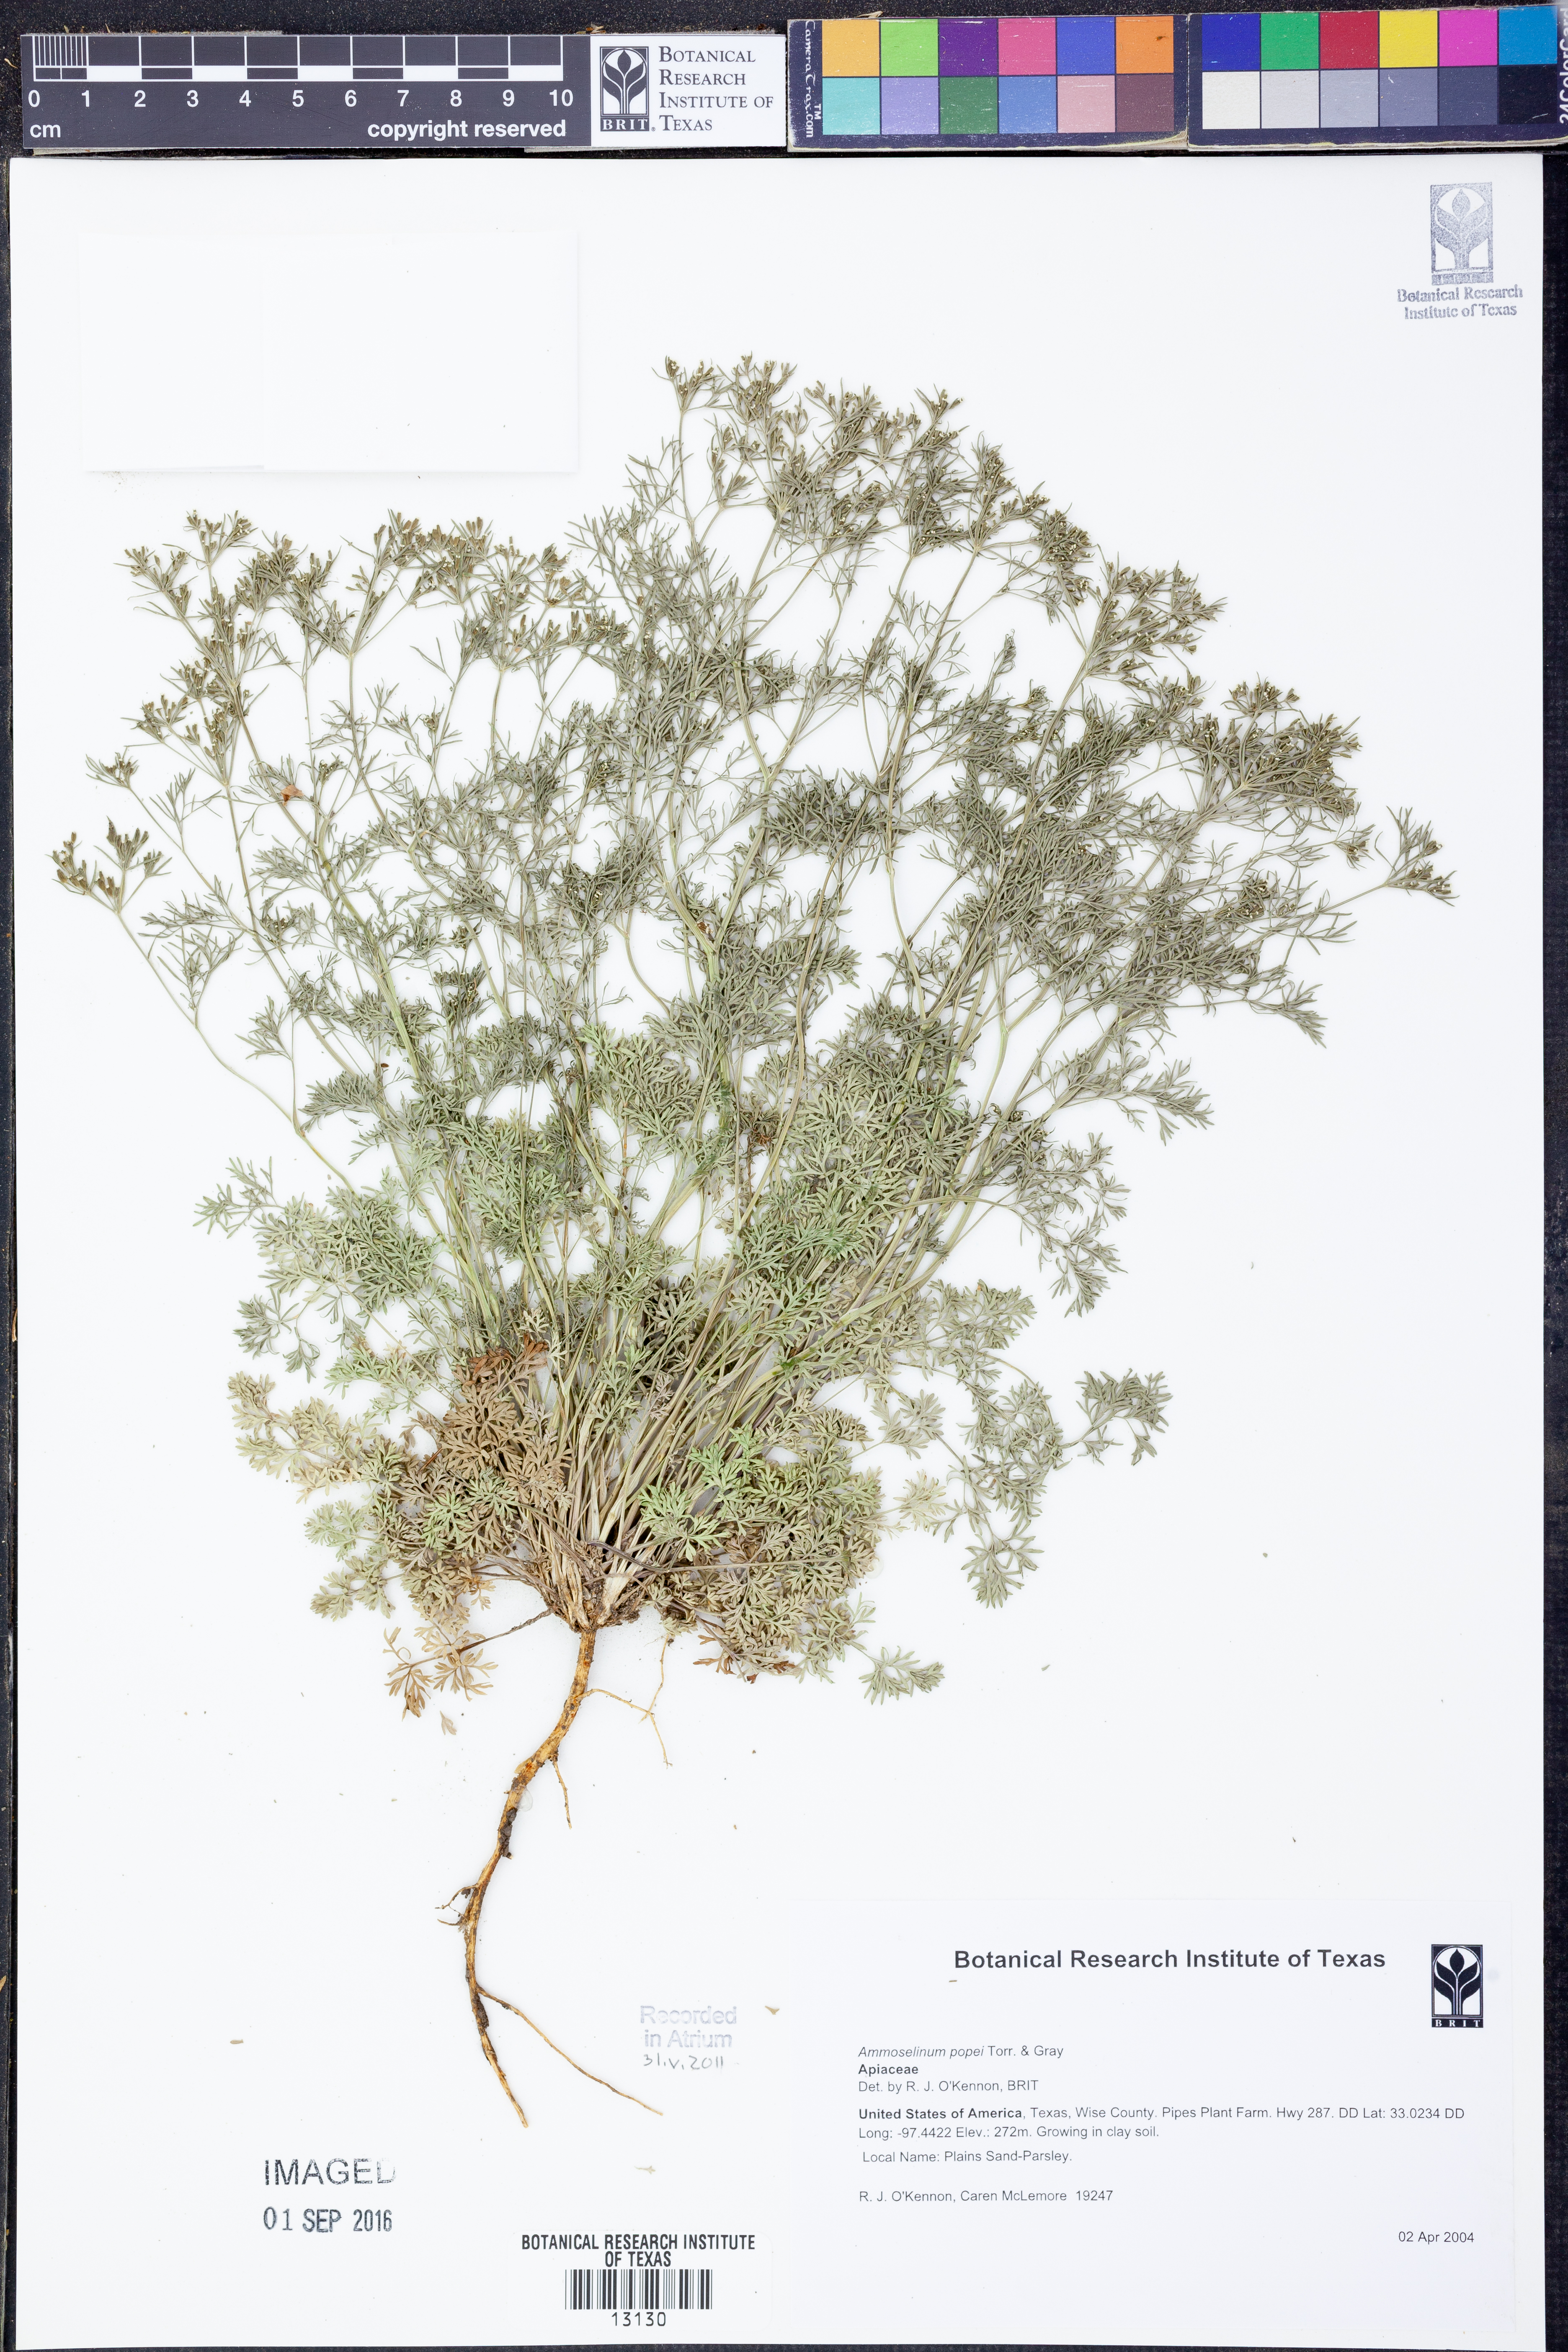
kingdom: Plantae
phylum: Tracheophyta
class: Magnoliopsida
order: Apiales
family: Apiaceae
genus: Ammoselinum
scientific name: Ammoselinum popei
